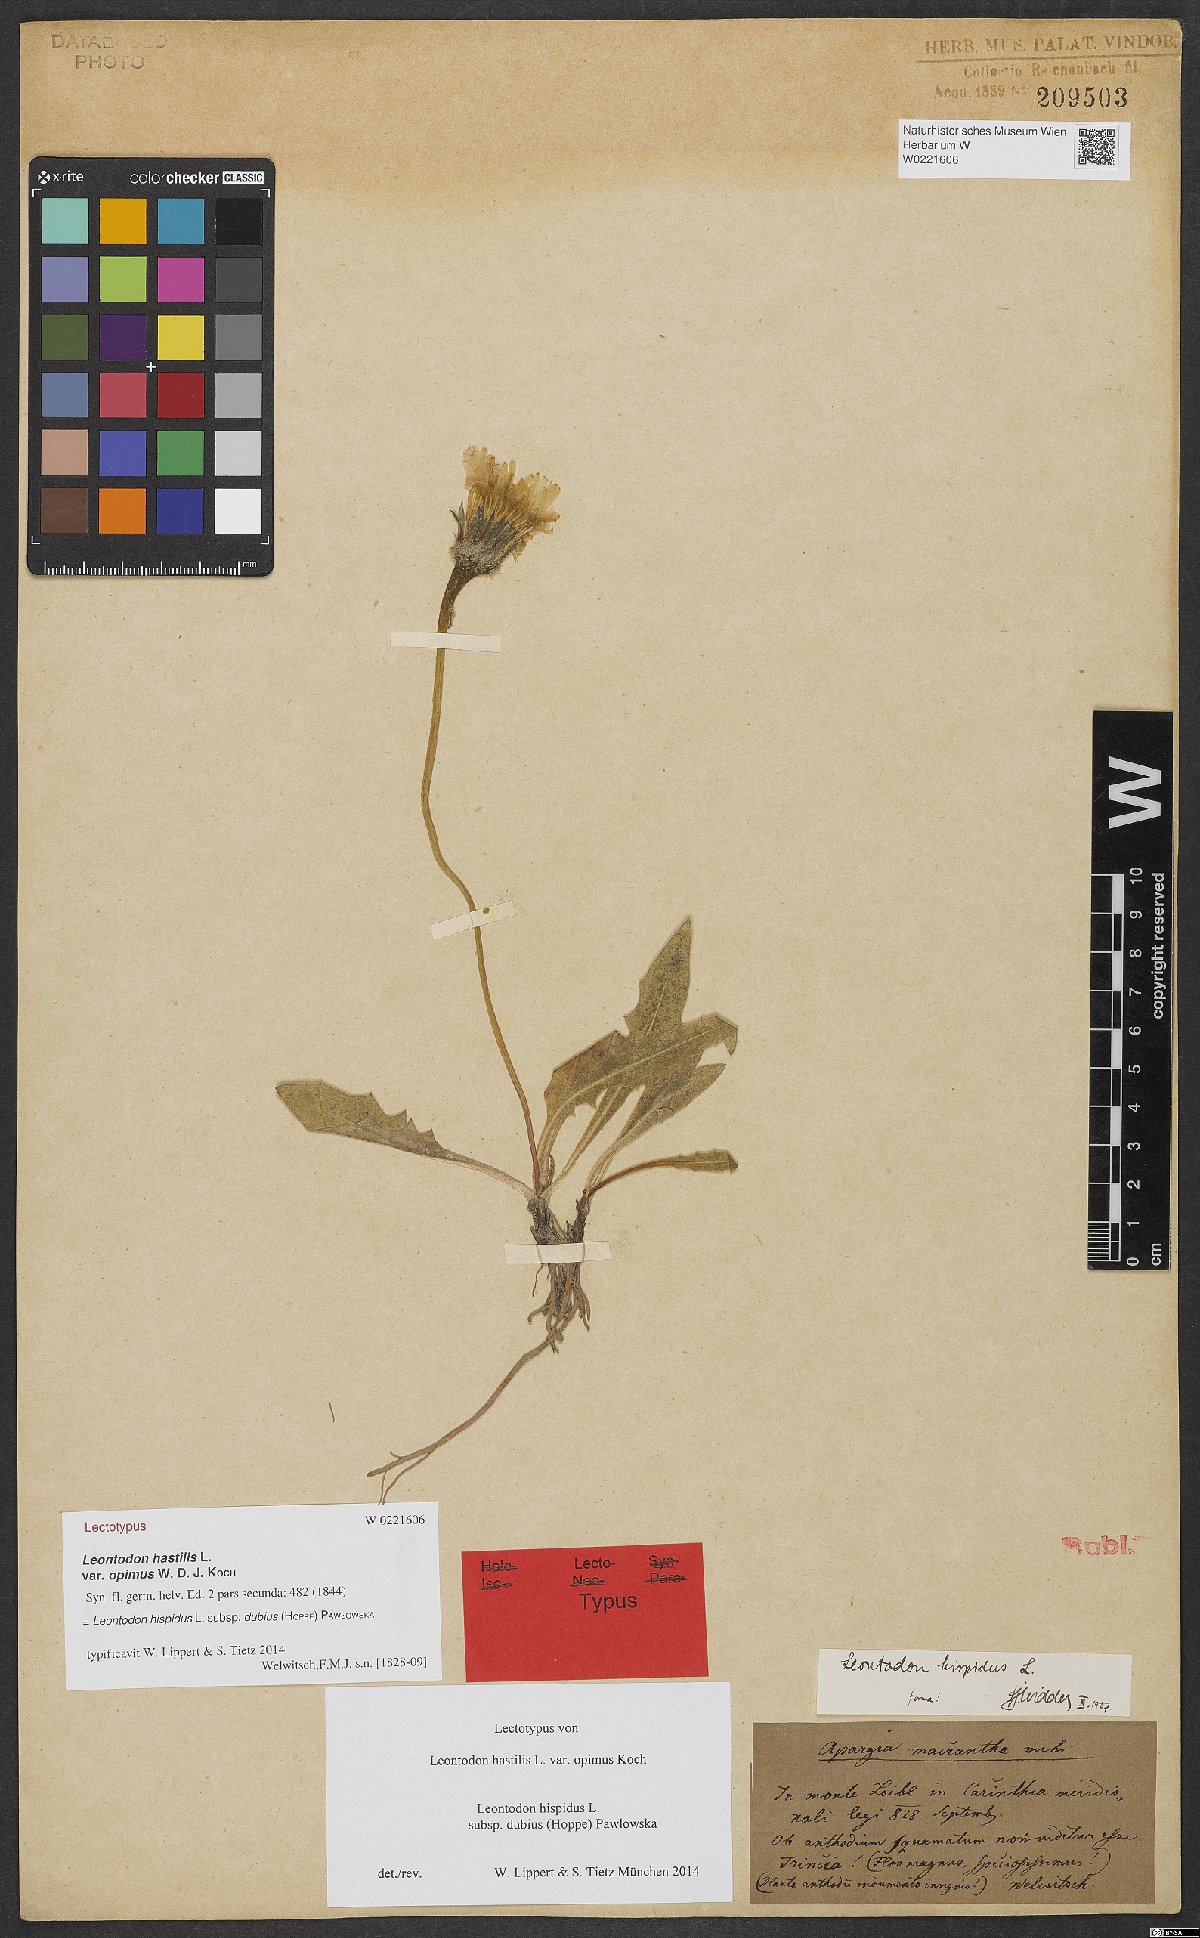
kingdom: Plantae
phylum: Tracheophyta
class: Magnoliopsida
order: Asterales
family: Asteraceae
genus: Leontodon
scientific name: Leontodon hispidus
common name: Rough hawkbit
